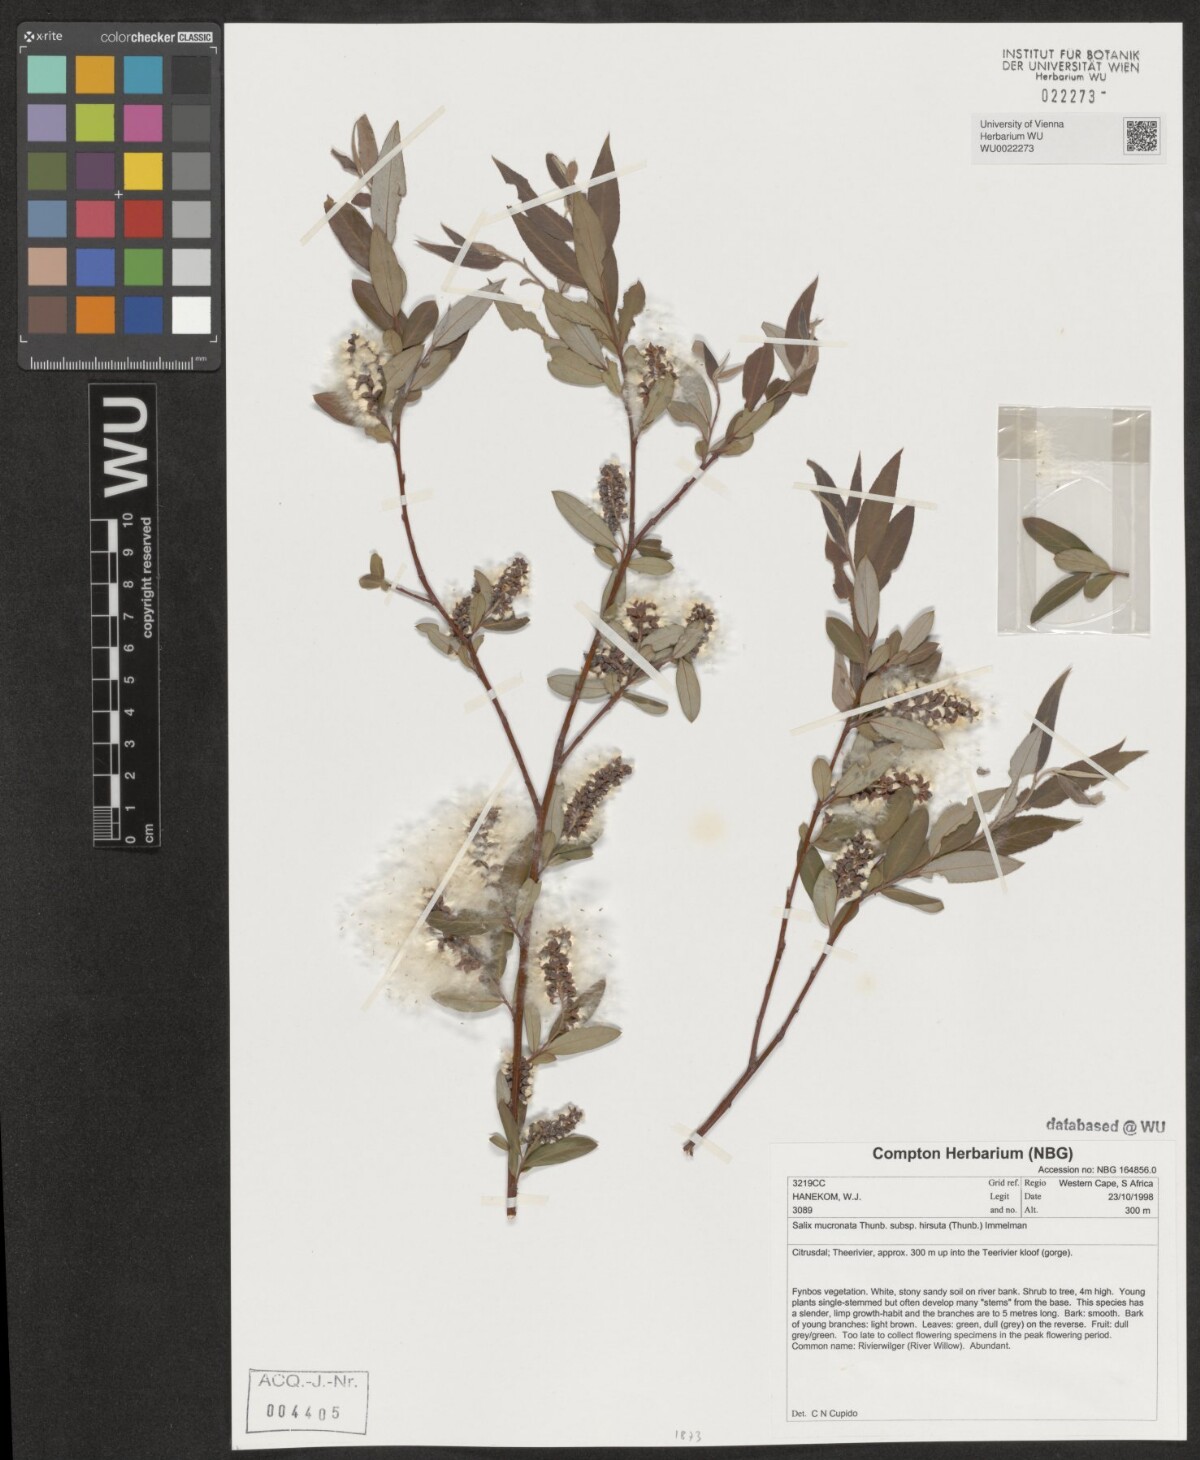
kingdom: Plantae
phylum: Tracheophyta
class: Magnoliopsida
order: Malpighiales
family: Salicaceae
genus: Salix
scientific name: Salix mucronata
